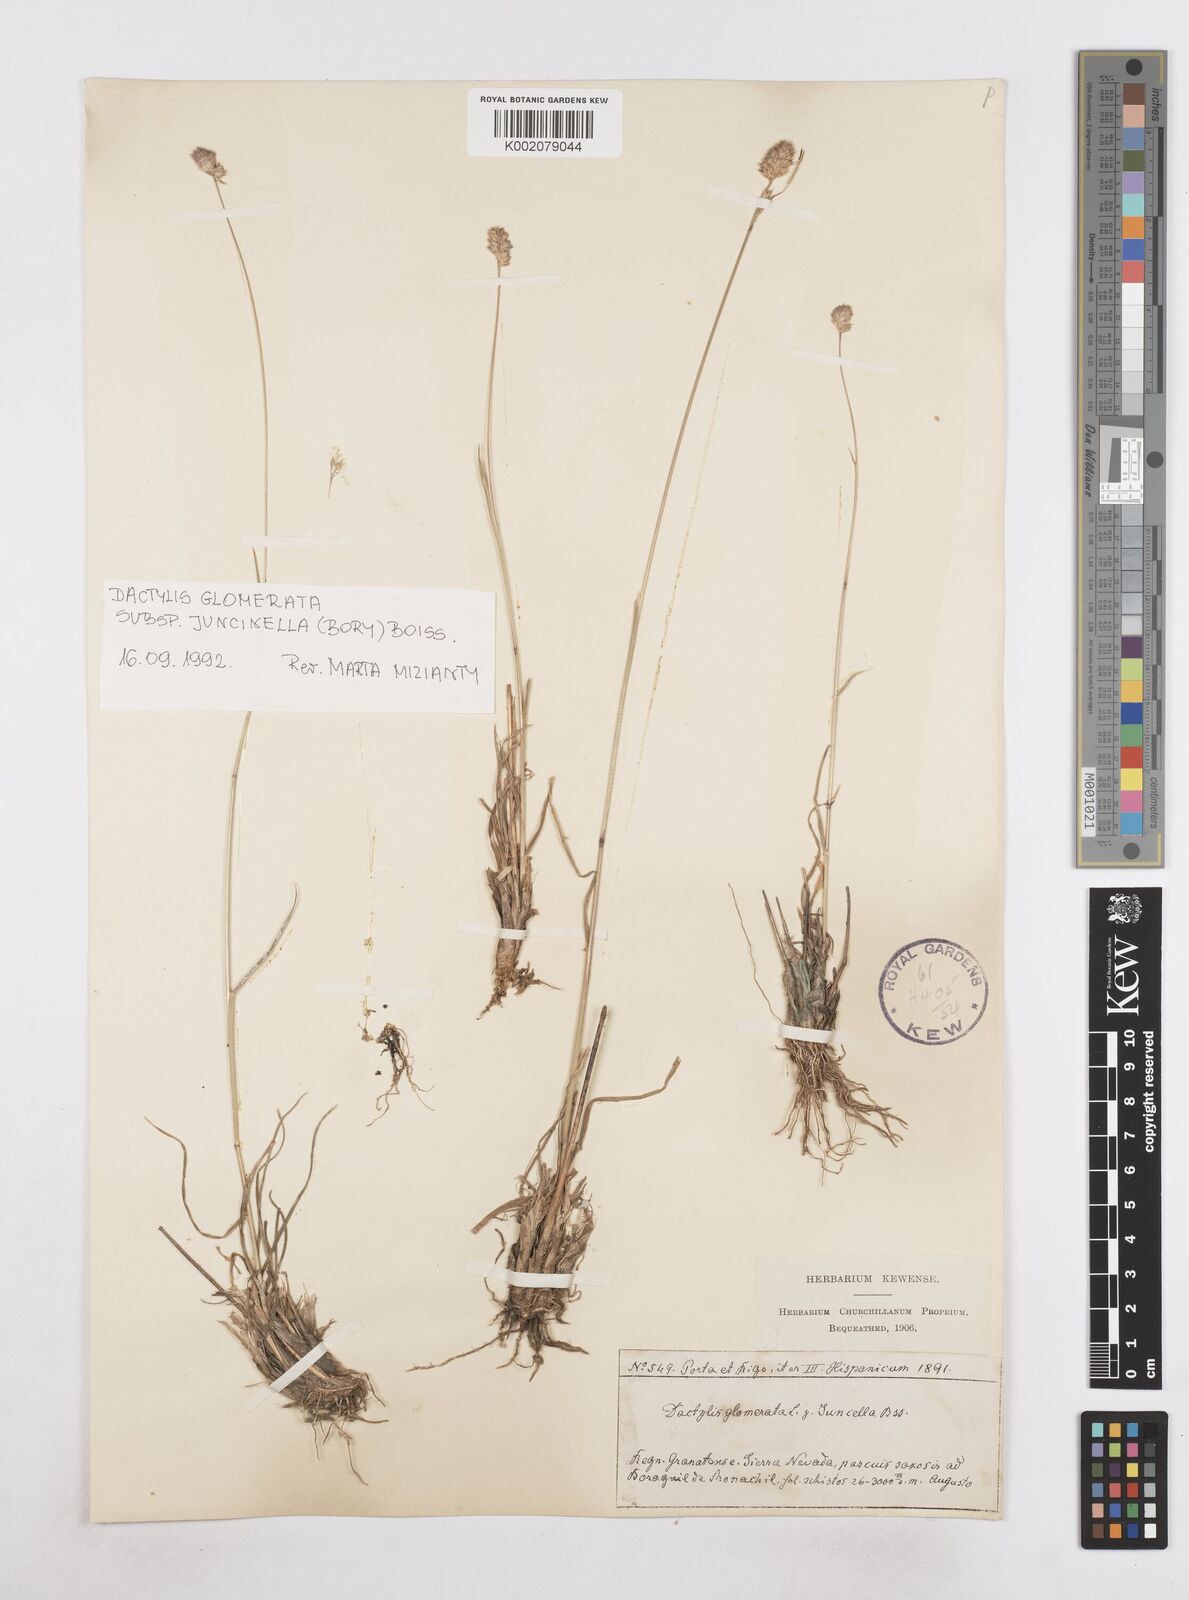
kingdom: Plantae
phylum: Tracheophyta
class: Liliopsida
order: Poales
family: Poaceae
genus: Dactylis
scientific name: Dactylis glomerata
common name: Orchardgrass
